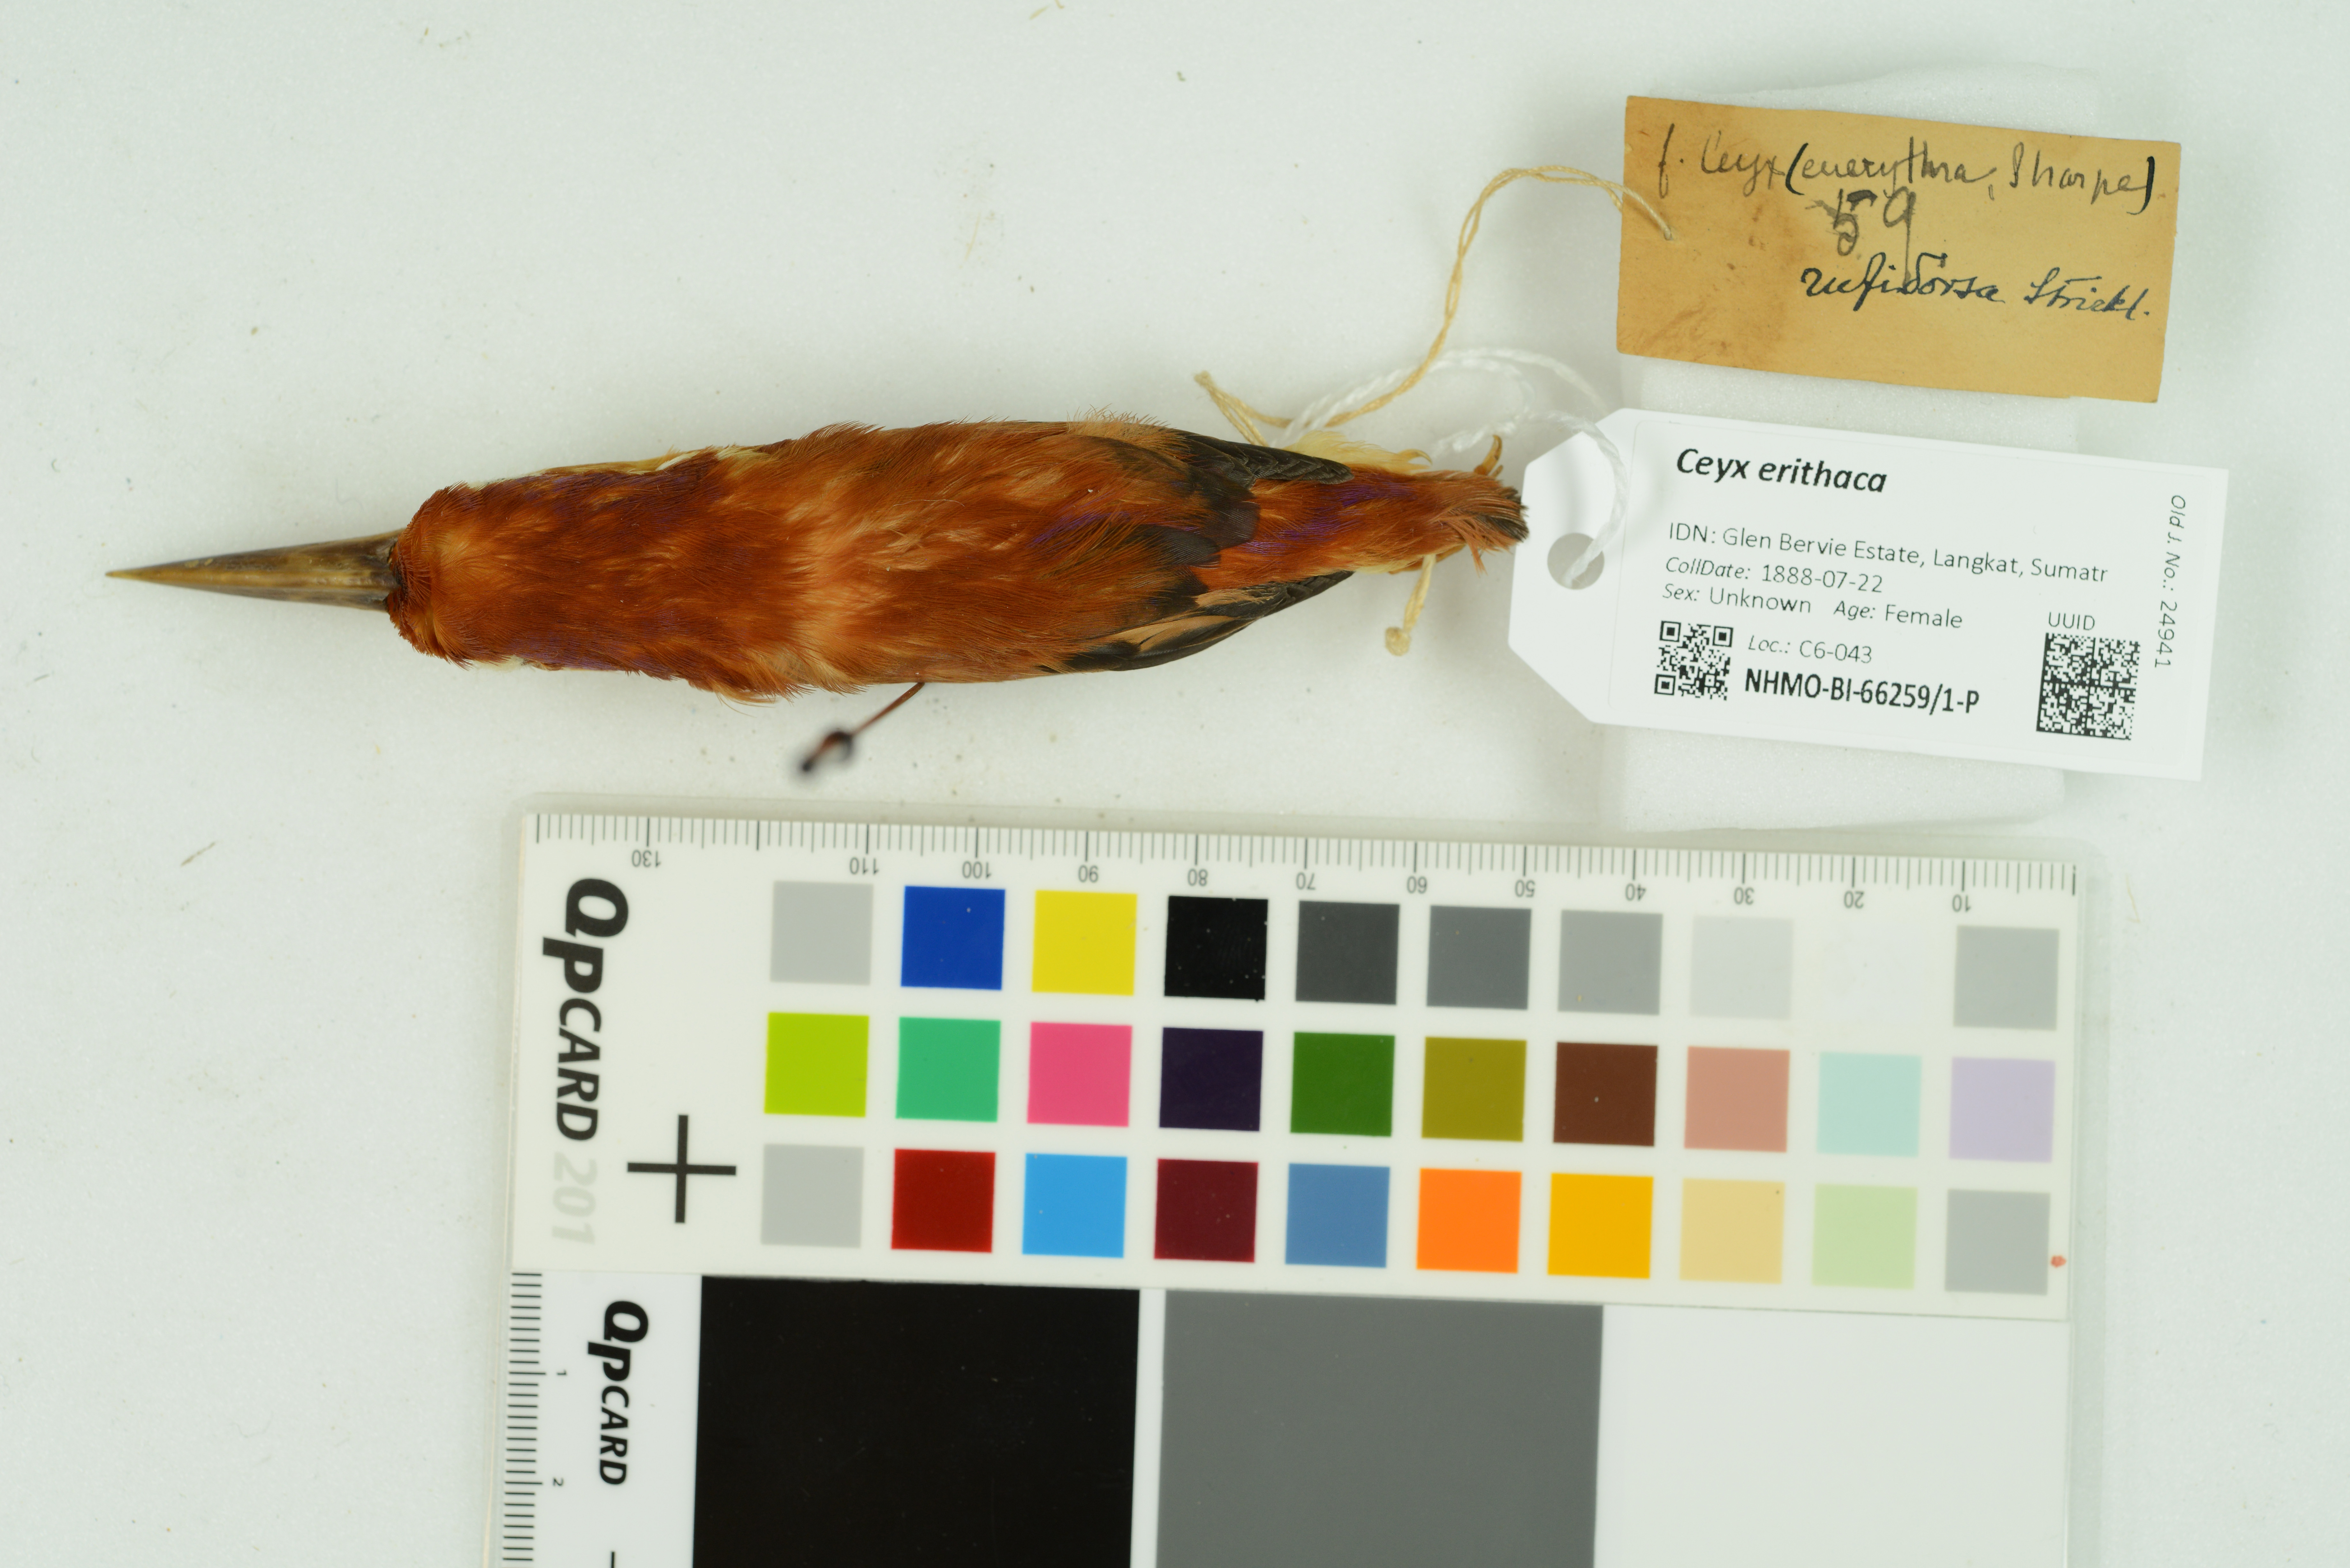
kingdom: Animalia
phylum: Chordata
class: Aves
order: Coraciiformes
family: Alcedinidae
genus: Ceyx
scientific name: Ceyx erithaca
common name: Oriental dwarf kingfisher
